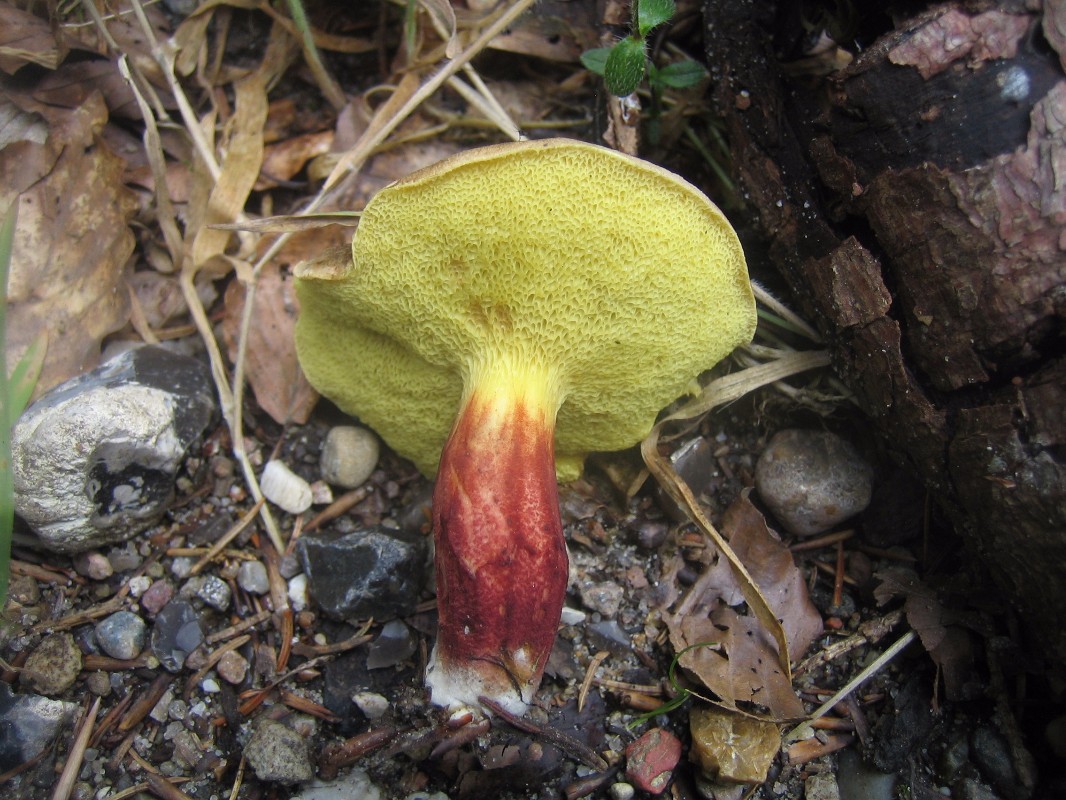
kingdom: Fungi
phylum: Basidiomycota
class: Agaricomycetes
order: Boletales
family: Boletaceae
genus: Xerocomellus
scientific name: Xerocomellus
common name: dværgrørhat
